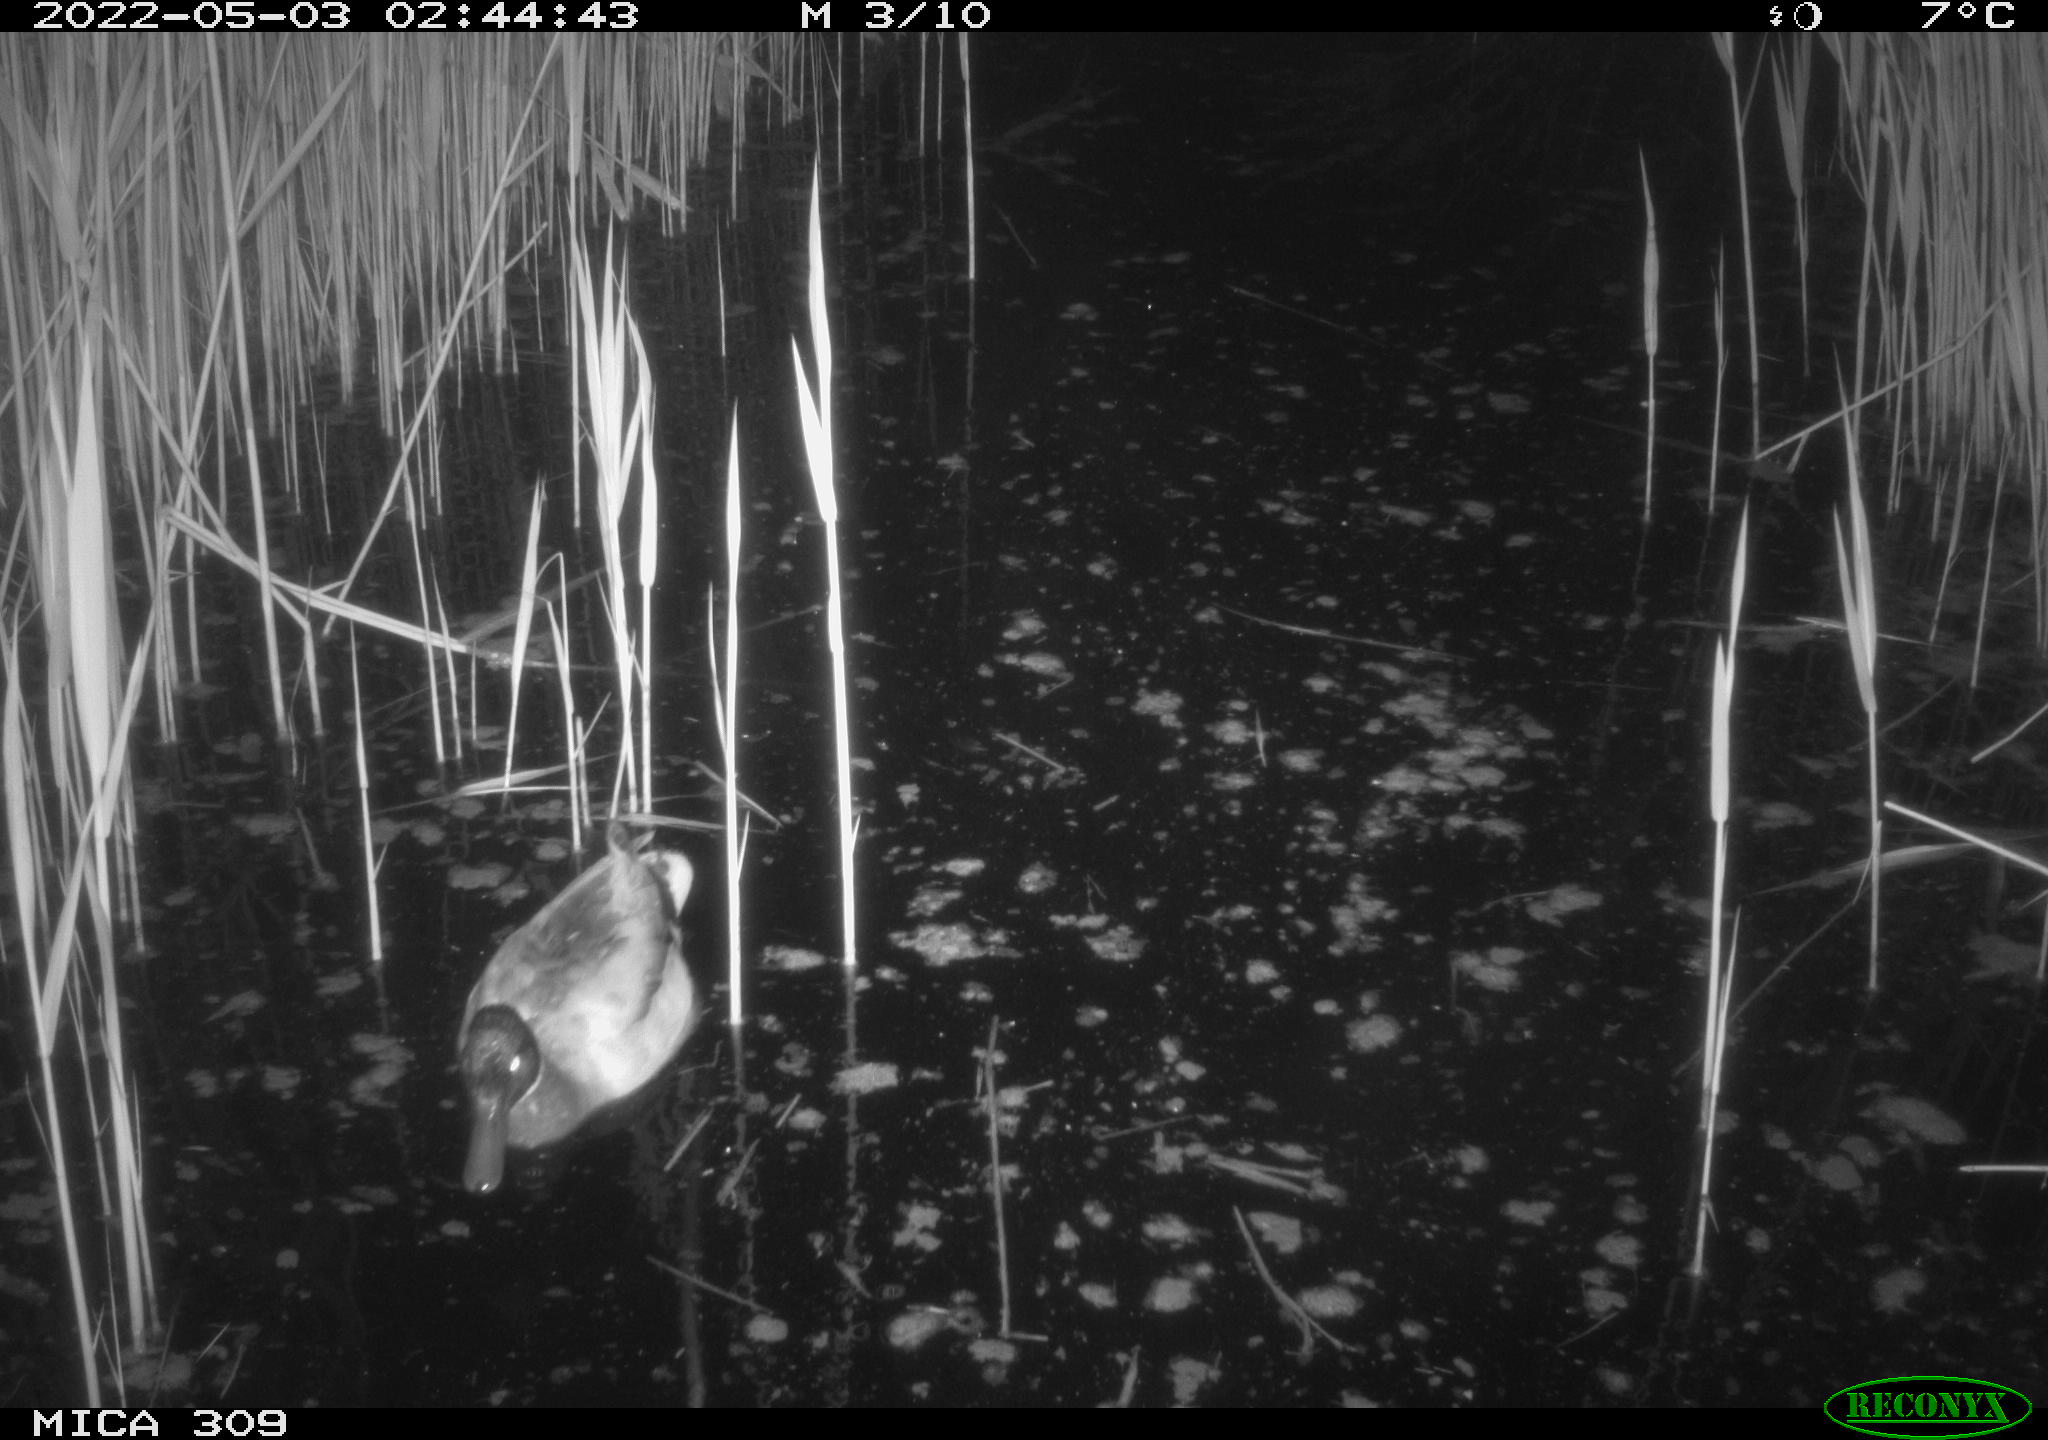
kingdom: Animalia
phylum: Chordata
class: Aves
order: Gruiformes
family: Rallidae
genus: Fulica
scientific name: Fulica atra
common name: Eurasian coot
